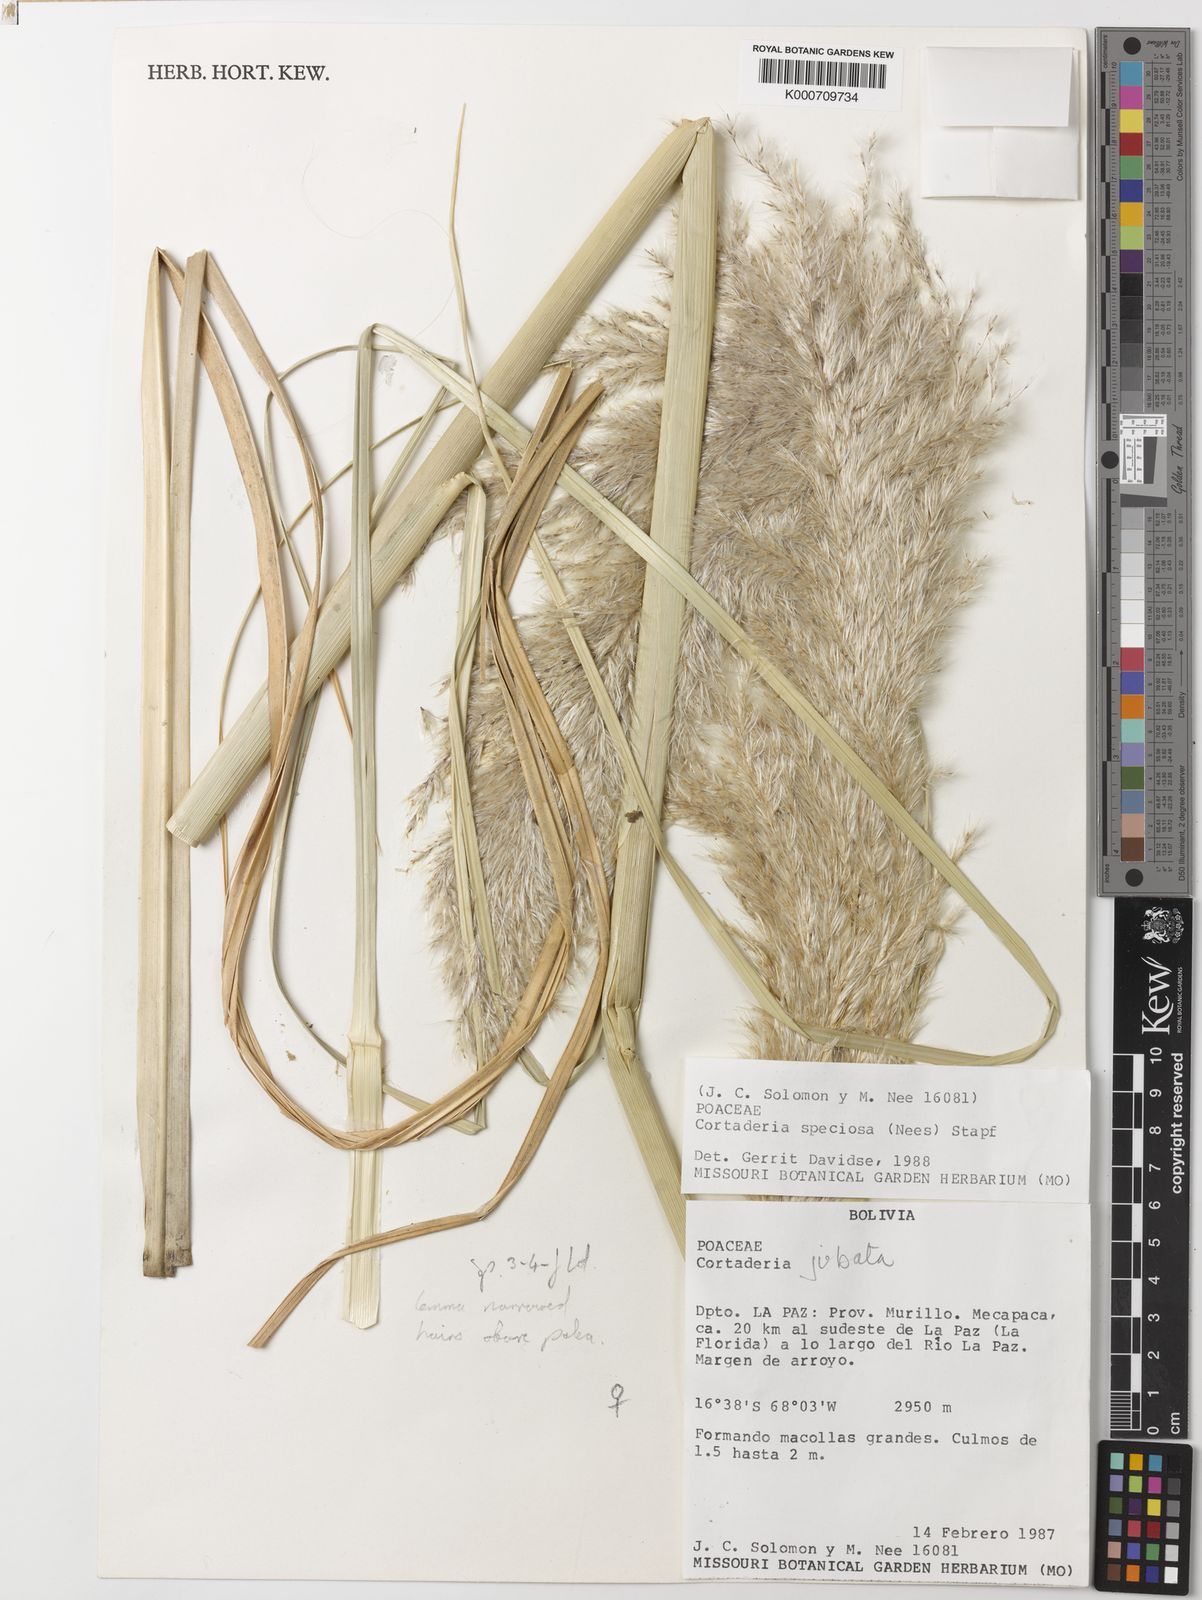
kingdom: Plantae
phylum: Tracheophyta
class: Liliopsida
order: Poales
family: Poaceae
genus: Cortaderia
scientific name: Cortaderia jubata
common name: Purple pampas grass
